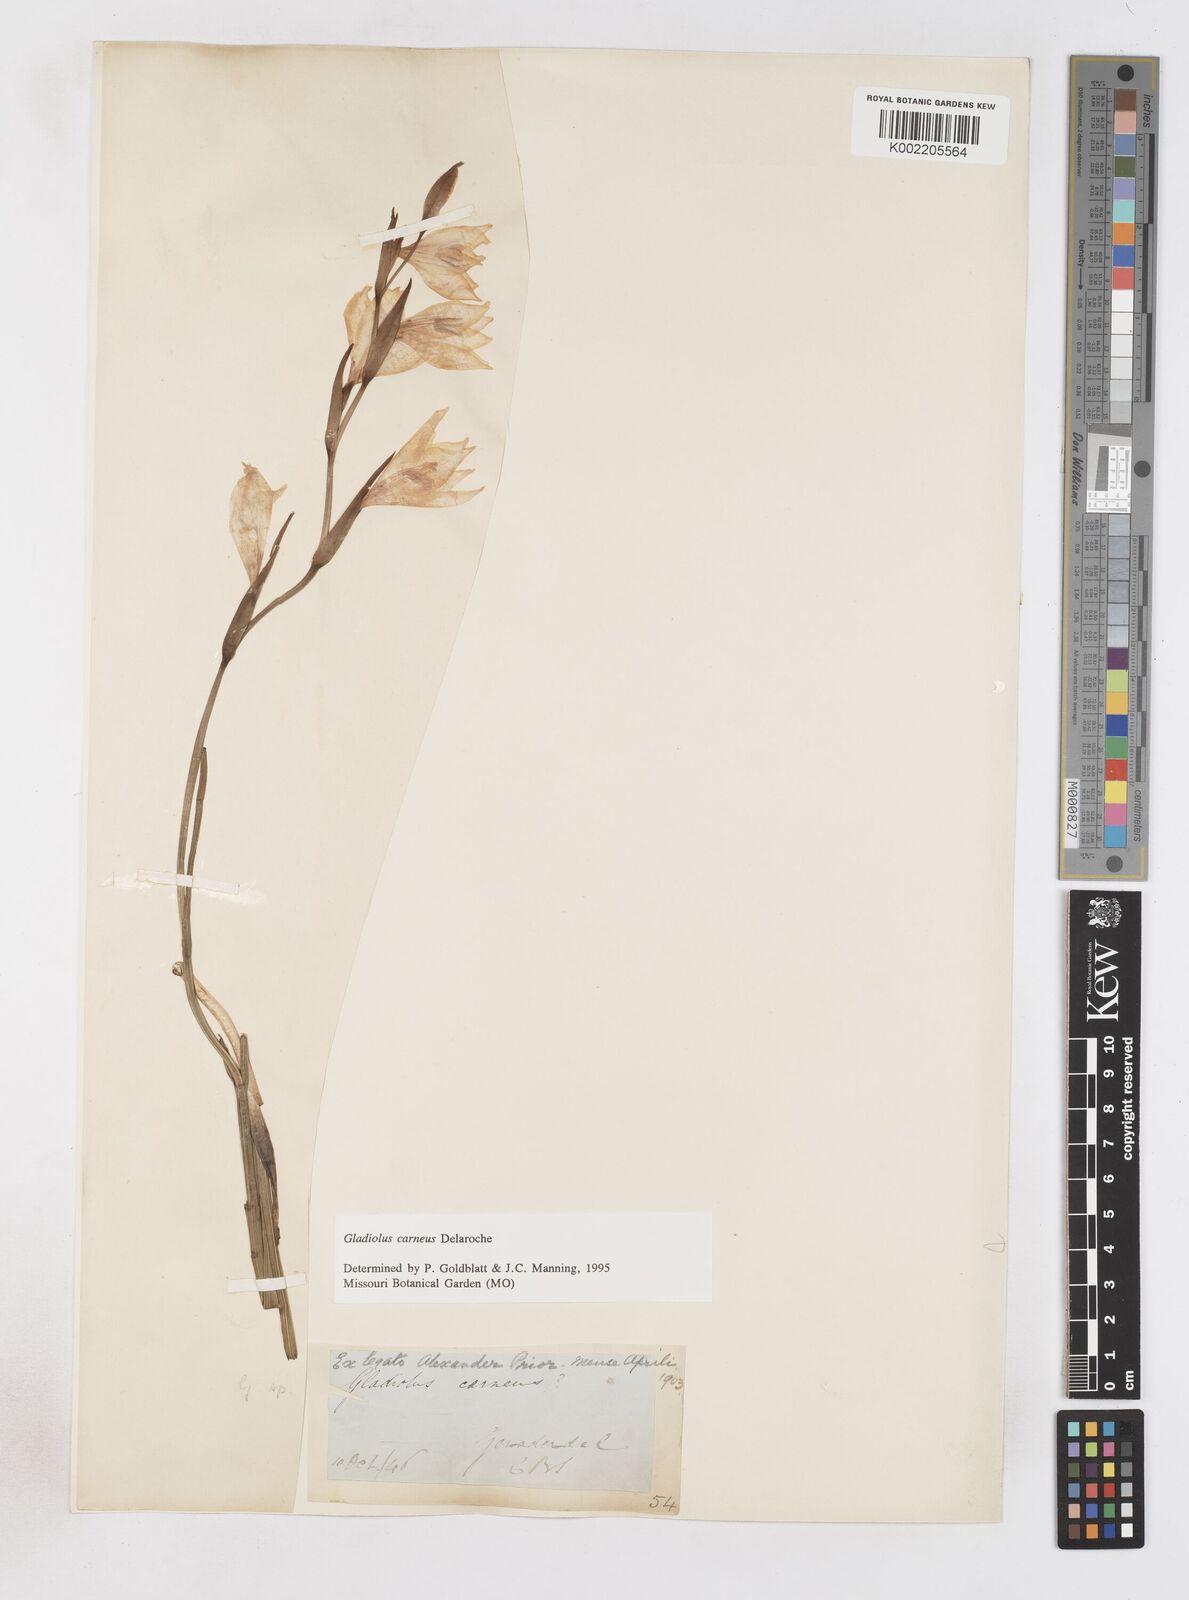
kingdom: Plantae
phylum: Tracheophyta
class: Liliopsida
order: Asparagales
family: Iridaceae
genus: Gladiolus
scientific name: Gladiolus carneus
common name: Painted-lady
